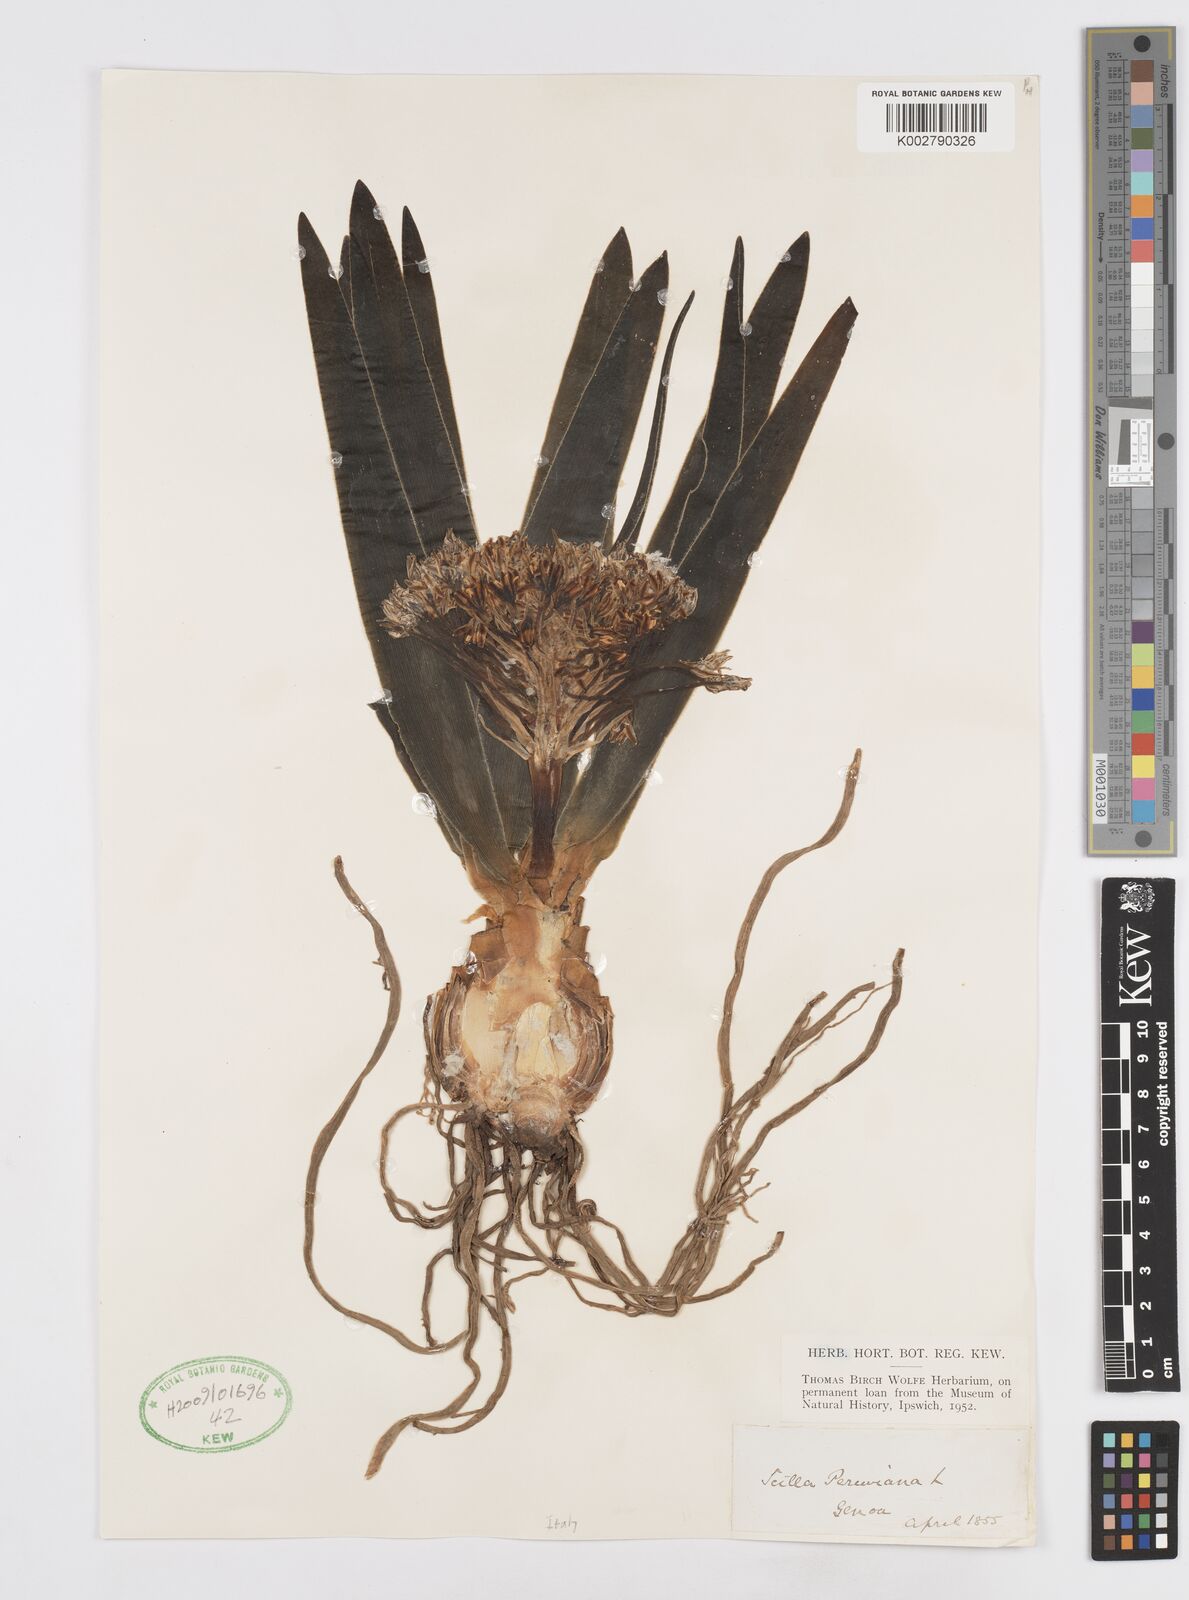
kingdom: Plantae
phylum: Tracheophyta
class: Liliopsida
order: Asparagales
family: Asparagaceae
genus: Scilla
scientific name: Scilla peruviana
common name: Portuguese squill
